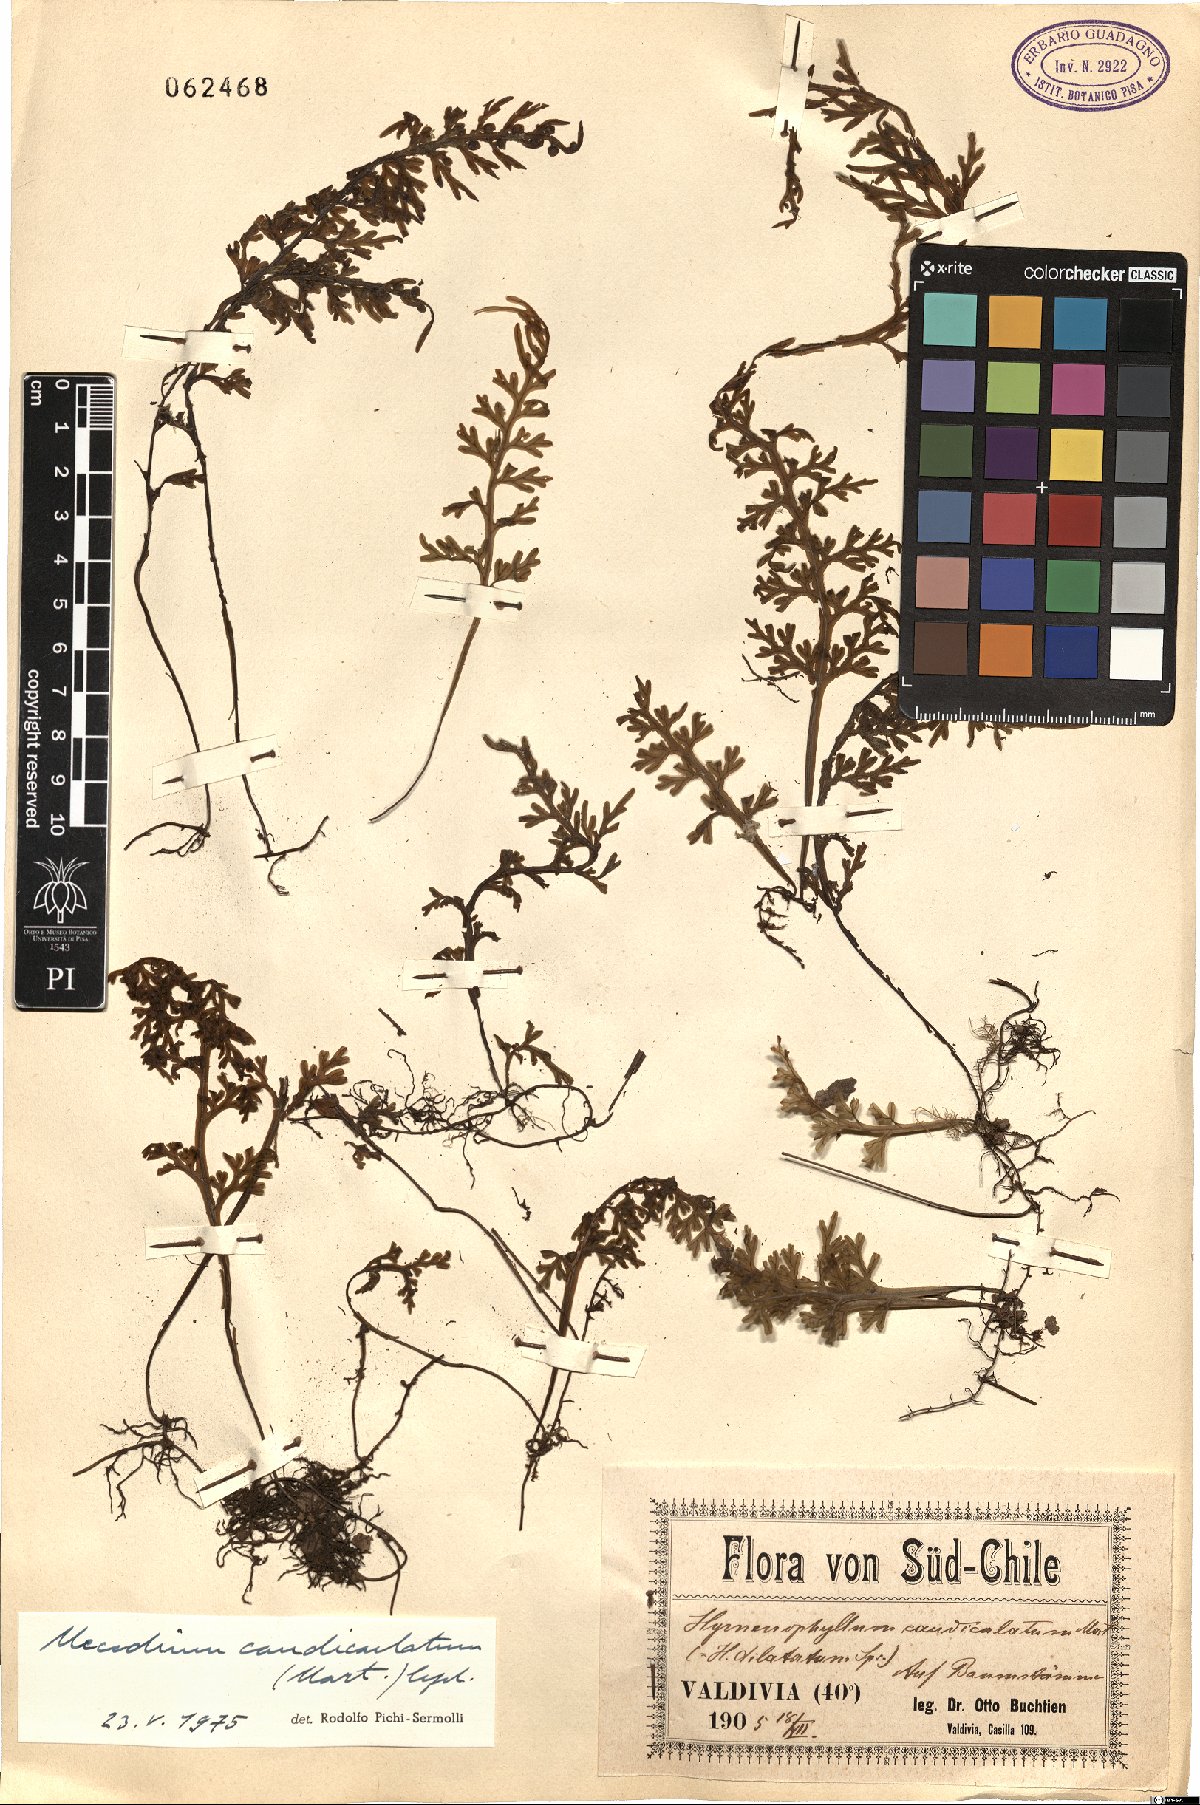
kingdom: Plantae
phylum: Tracheophyta
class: Polypodiopsida
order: Hymenophyllales
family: Hymenophyllaceae
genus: Hymenophyllum
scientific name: Hymenophyllum caudiculatum
